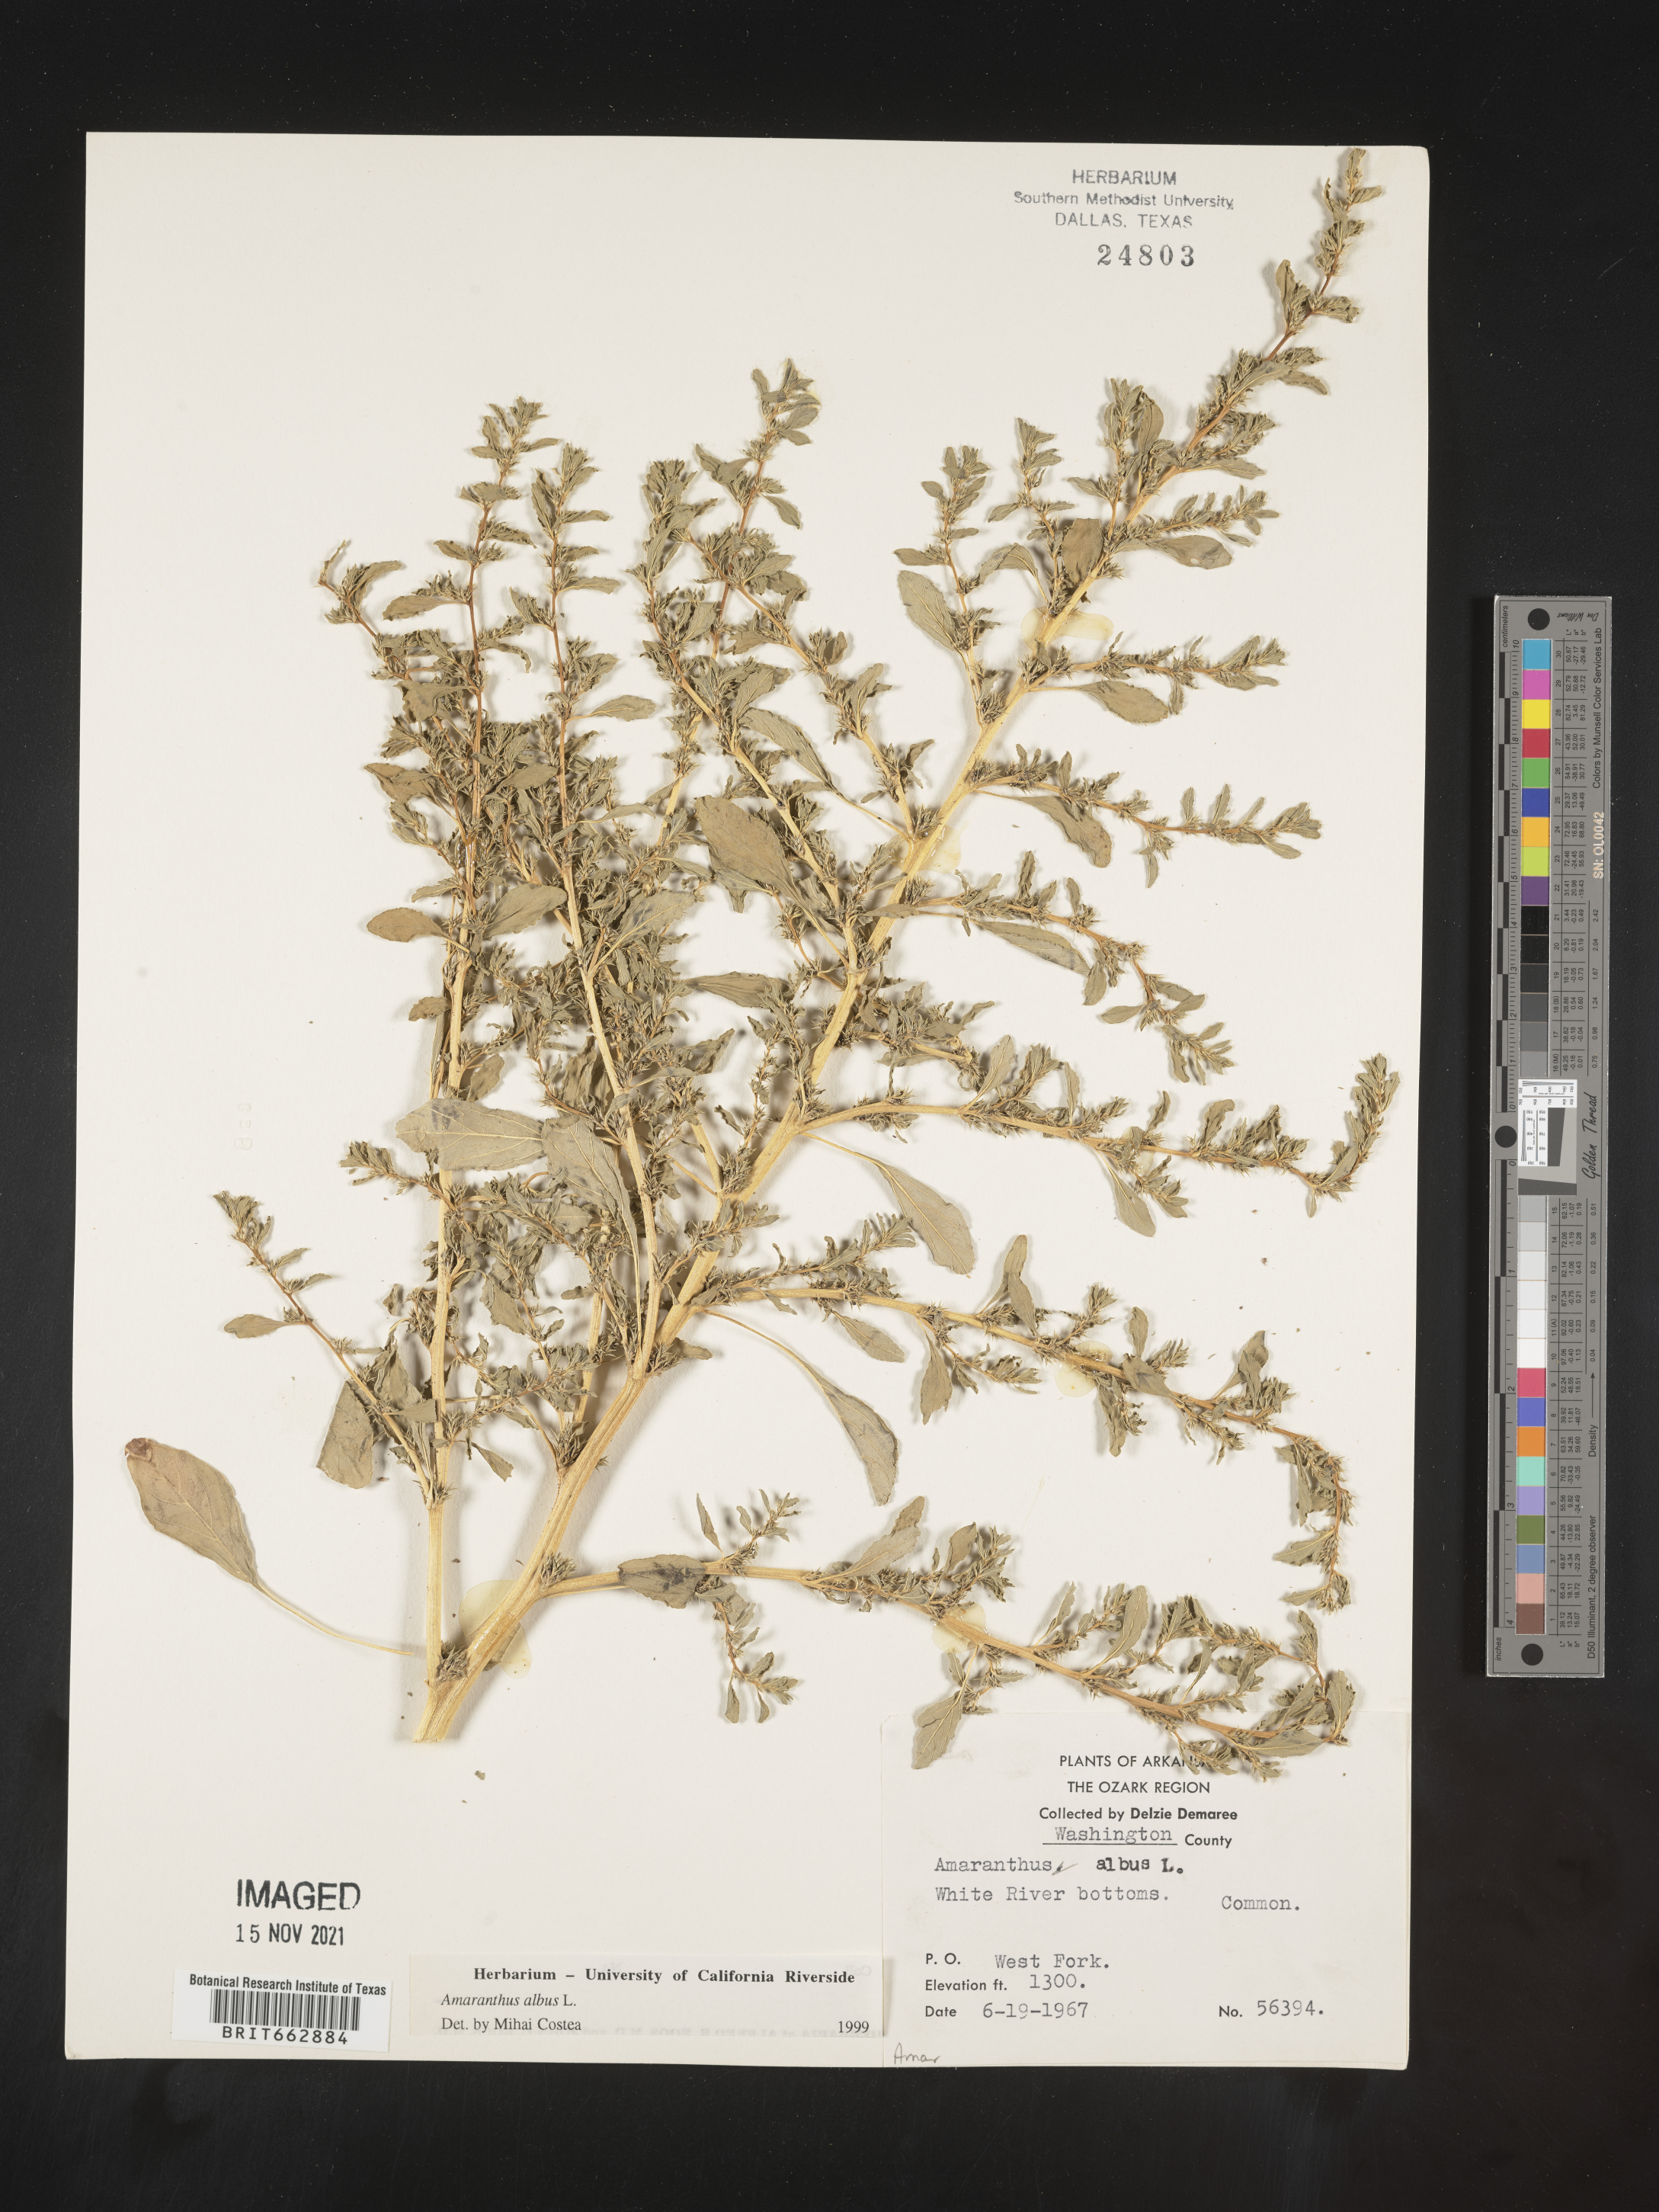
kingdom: Plantae
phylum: Tracheophyta
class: Magnoliopsida
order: Caryophyllales
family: Amaranthaceae
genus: Amaranthus
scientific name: Amaranthus albus
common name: White pigweed
